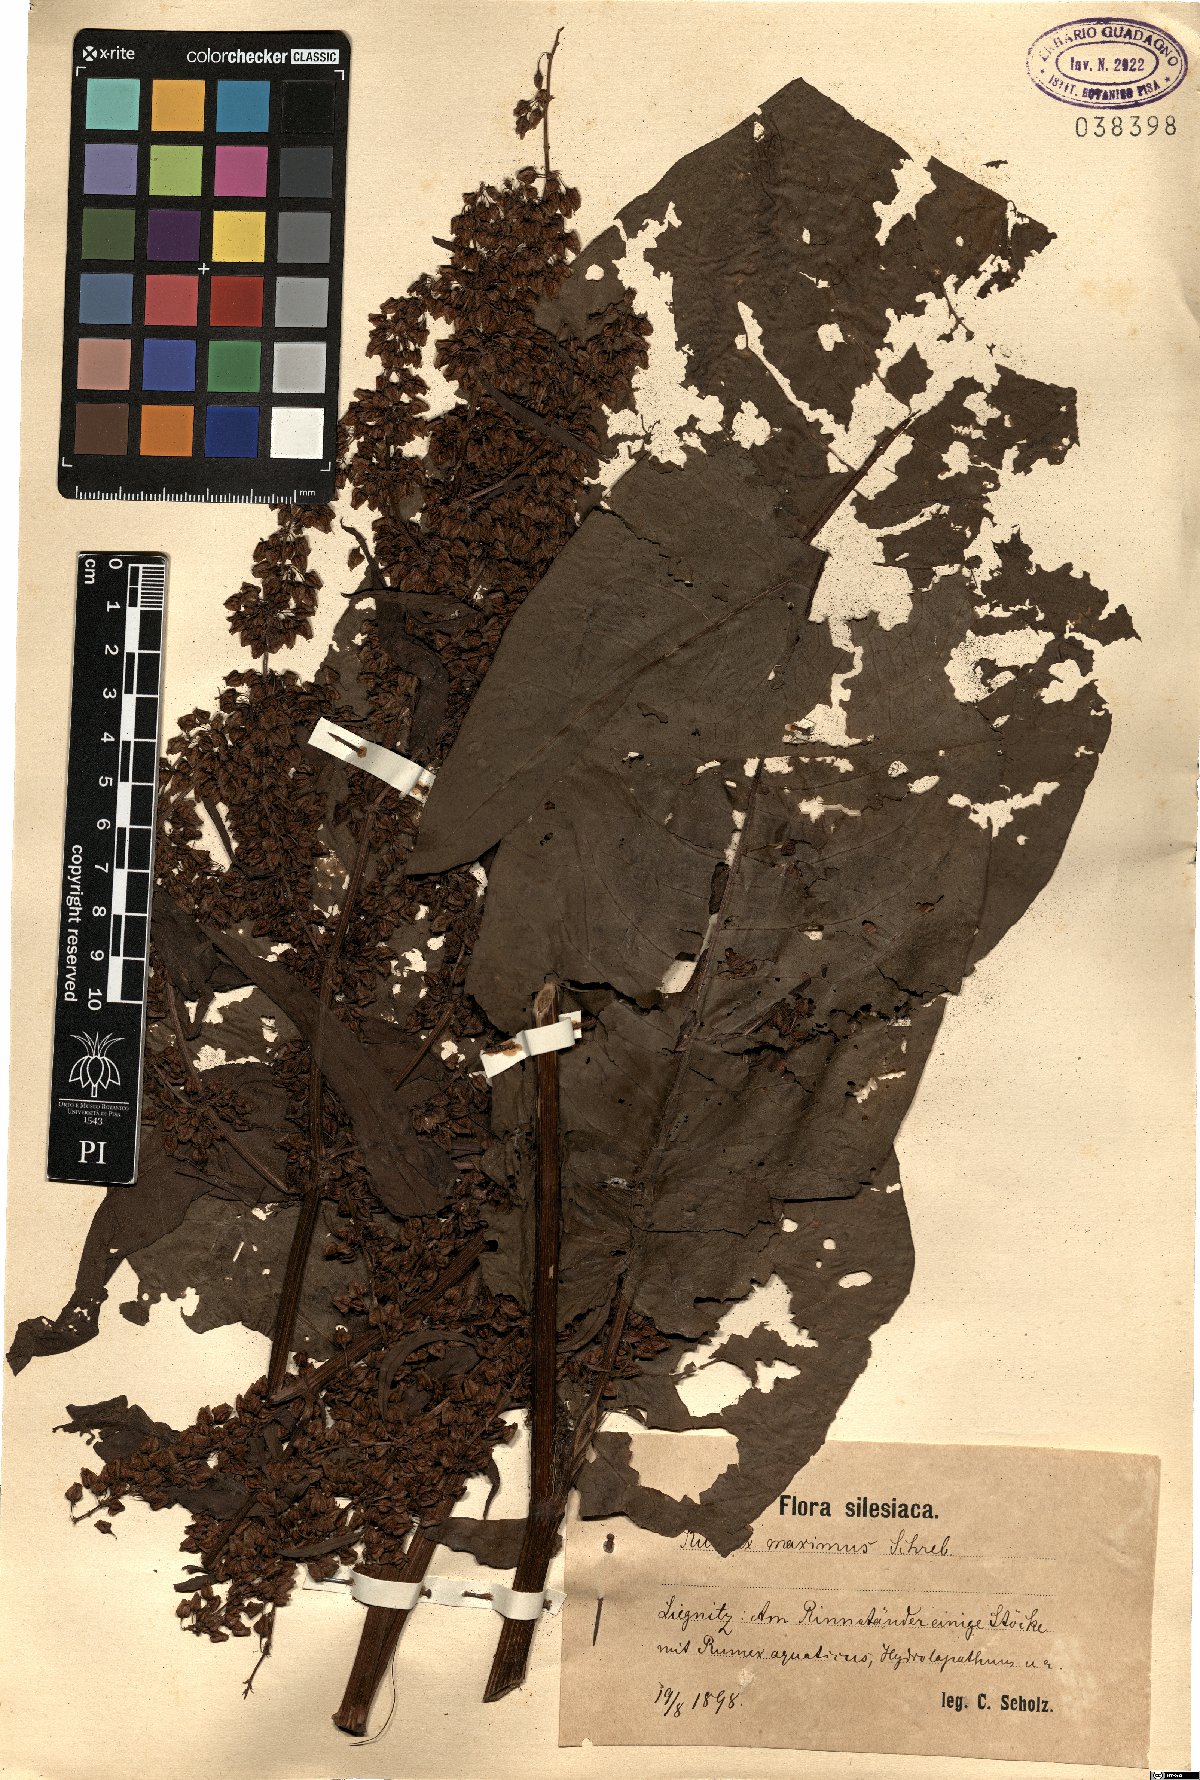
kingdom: Plantae
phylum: Tracheophyta
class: Magnoliopsida
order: Caryophyllales
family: Polygonaceae
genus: Rumex
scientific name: Rumex heterophyllus
